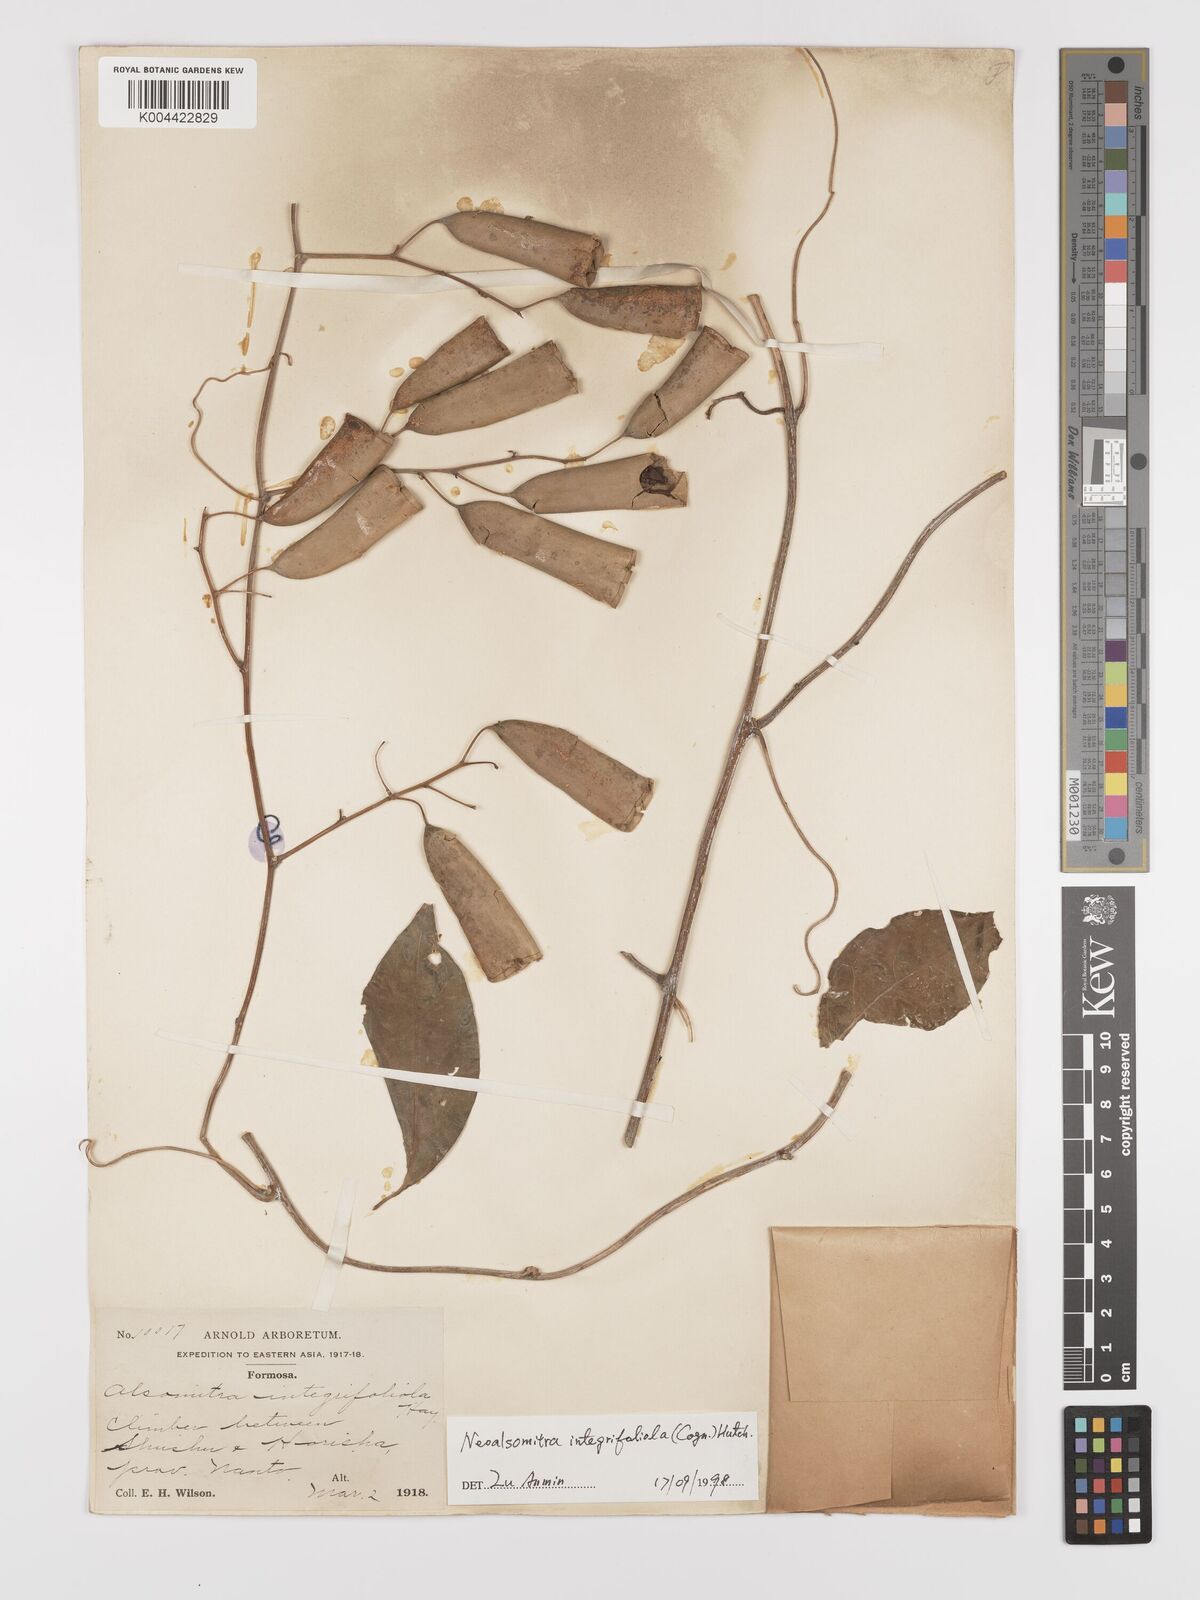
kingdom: Plantae
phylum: Tracheophyta
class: Magnoliopsida
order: Cucurbitales
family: Cucurbitaceae
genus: Neoalsomitra
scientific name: Neoalsomitra clavigera
